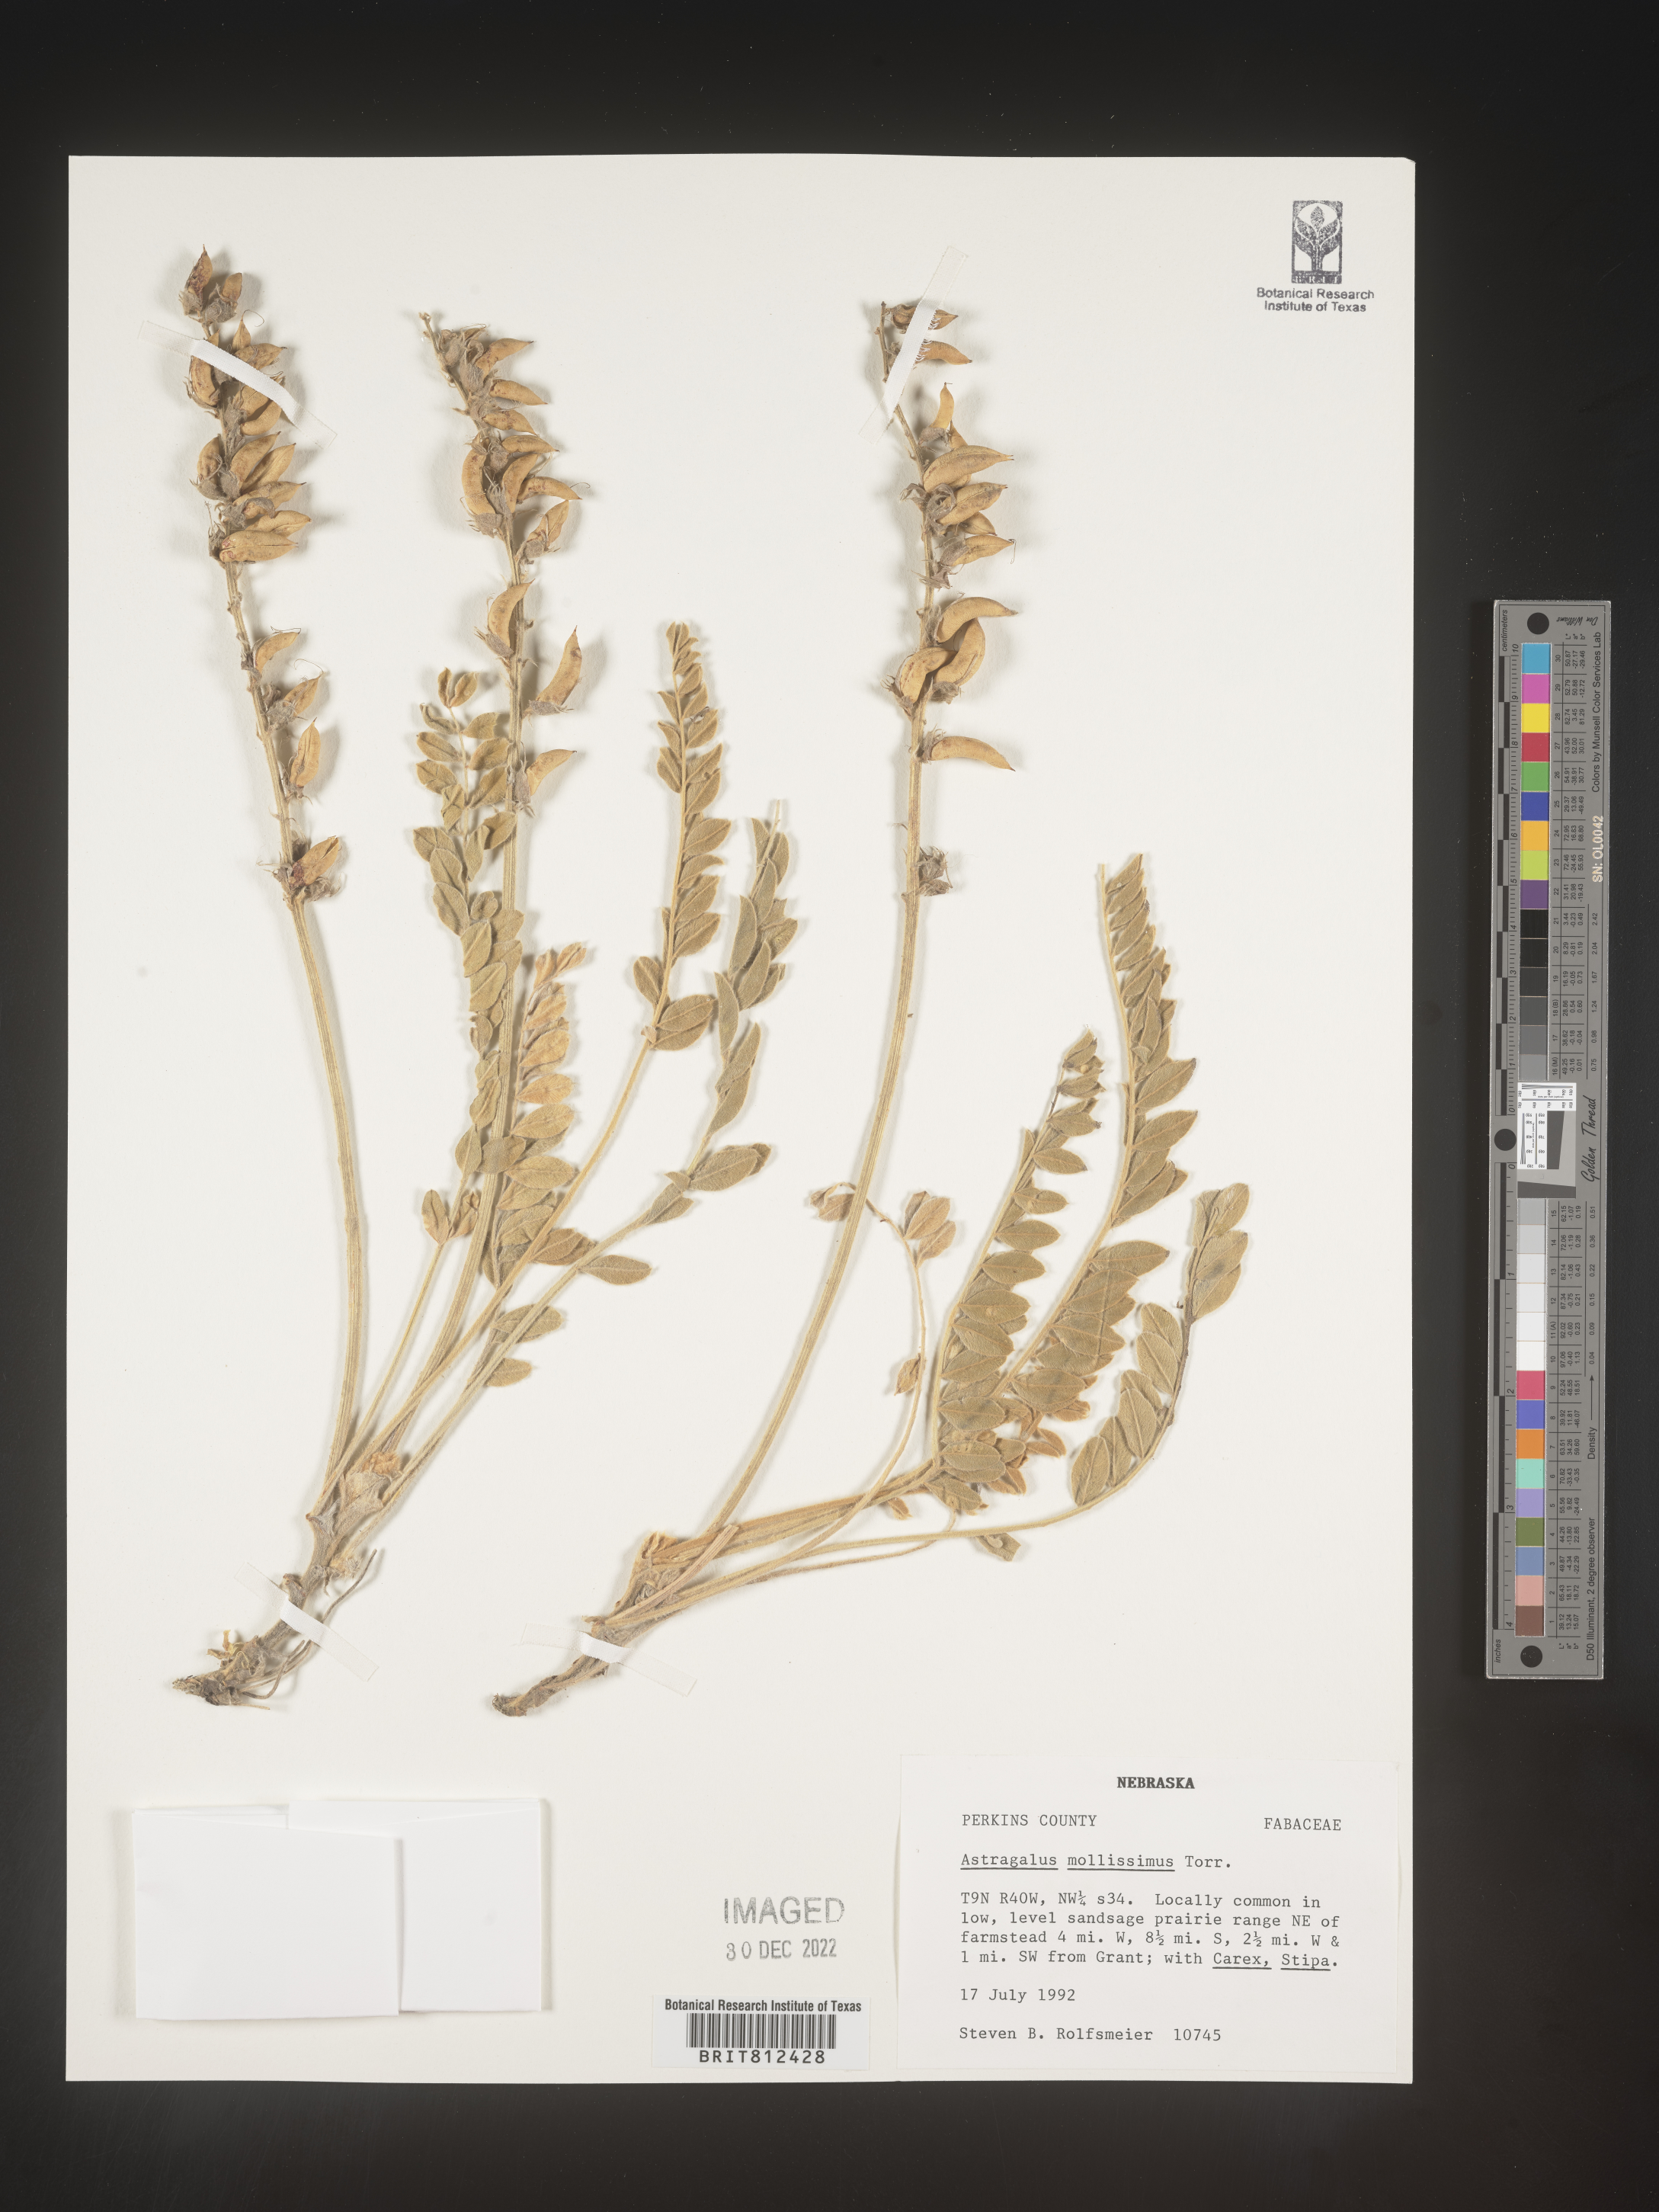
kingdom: Plantae
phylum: Tracheophyta
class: Magnoliopsida
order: Fabales
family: Fabaceae
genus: Astragalus
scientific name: Astragalus
